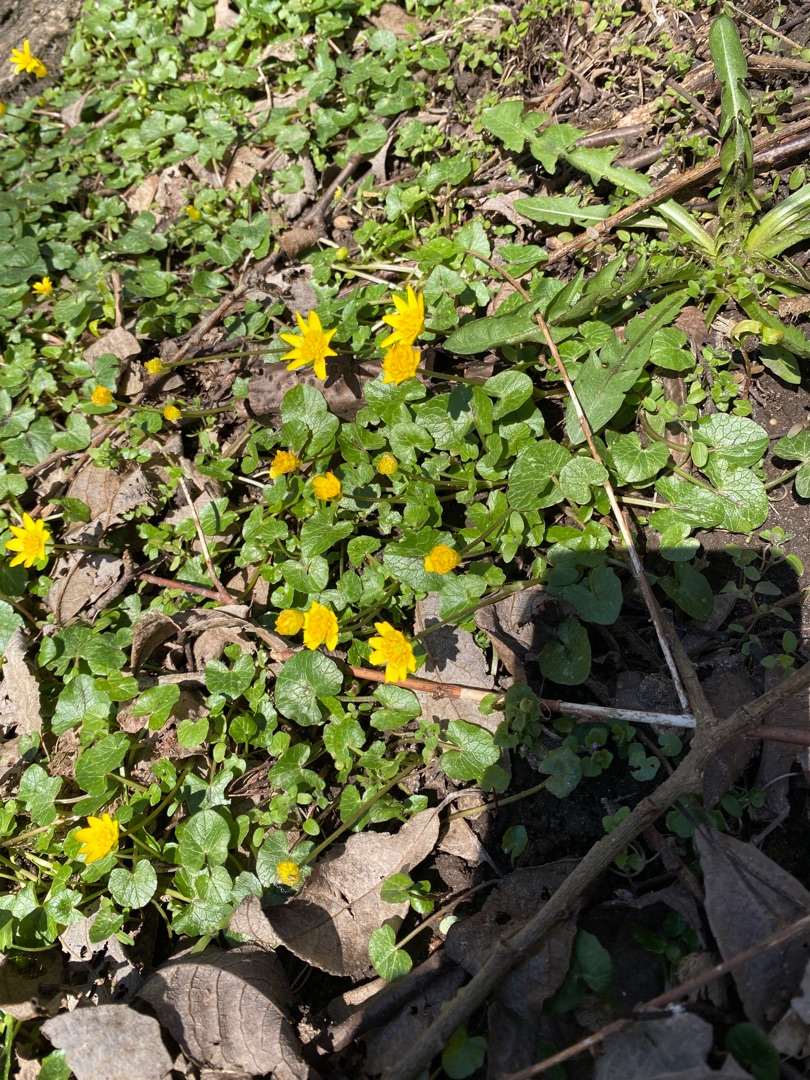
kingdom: Plantae
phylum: Tracheophyta
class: Magnoliopsida
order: Ranunculales
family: Ranunculaceae
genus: Ficaria
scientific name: Ficaria verna
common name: Vorterod
